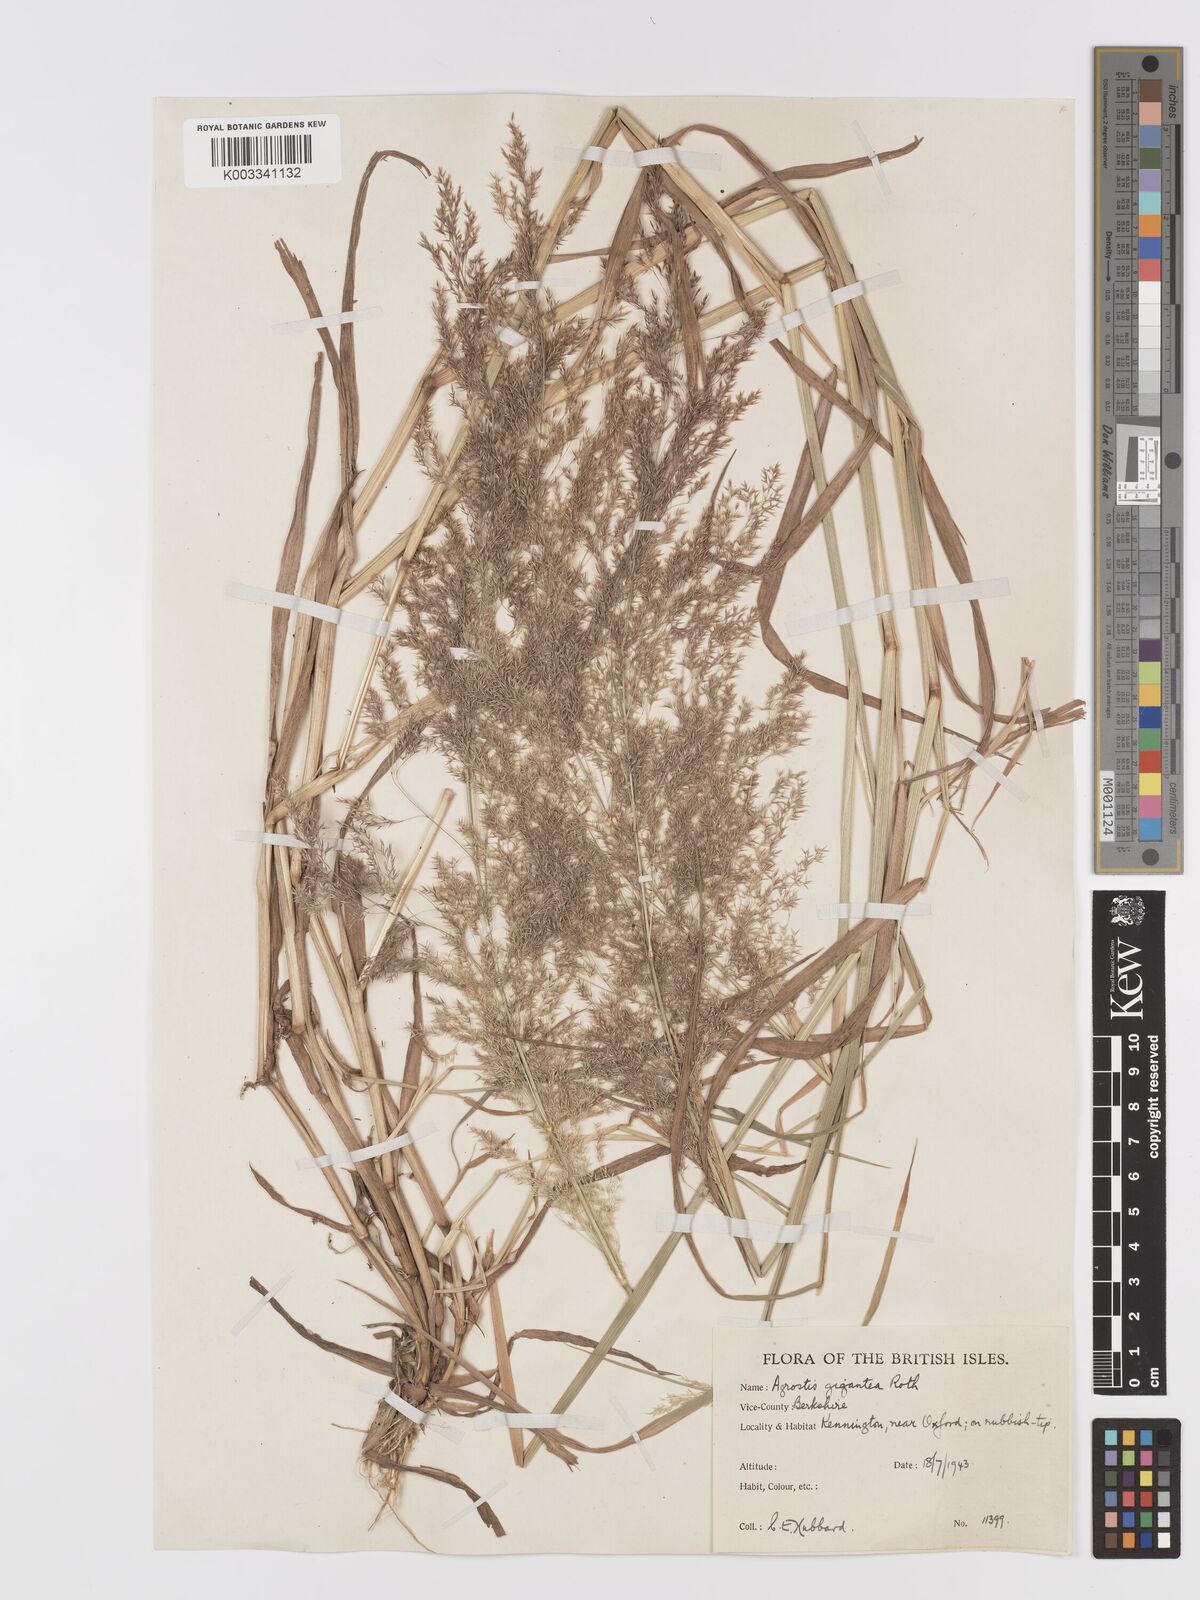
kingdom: Plantae
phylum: Tracheophyta
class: Liliopsida
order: Poales
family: Poaceae
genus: Agrostis
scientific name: Agrostis gigantea
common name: Black bent
